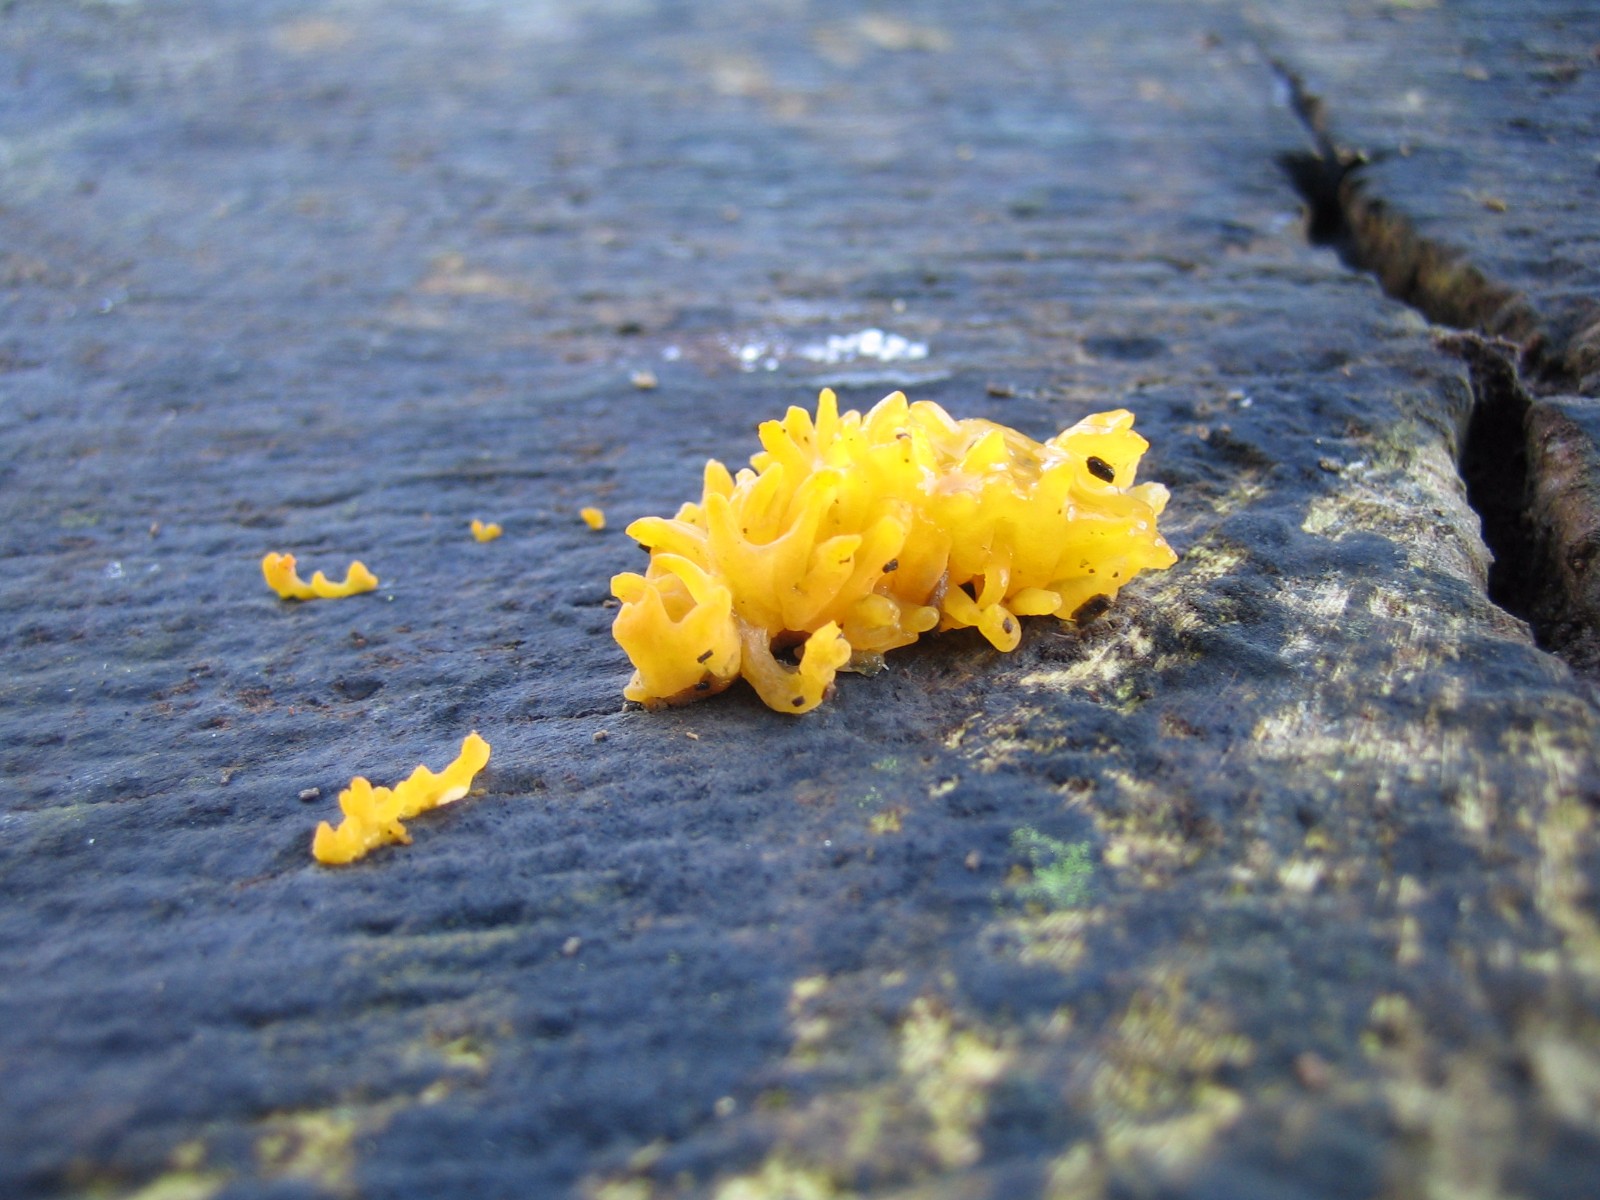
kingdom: Fungi
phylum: Basidiomycota
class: Dacrymycetes
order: Dacrymycetales
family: Dacrymycetaceae
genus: Calocera
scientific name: Calocera cornea
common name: liden guldgaffel
